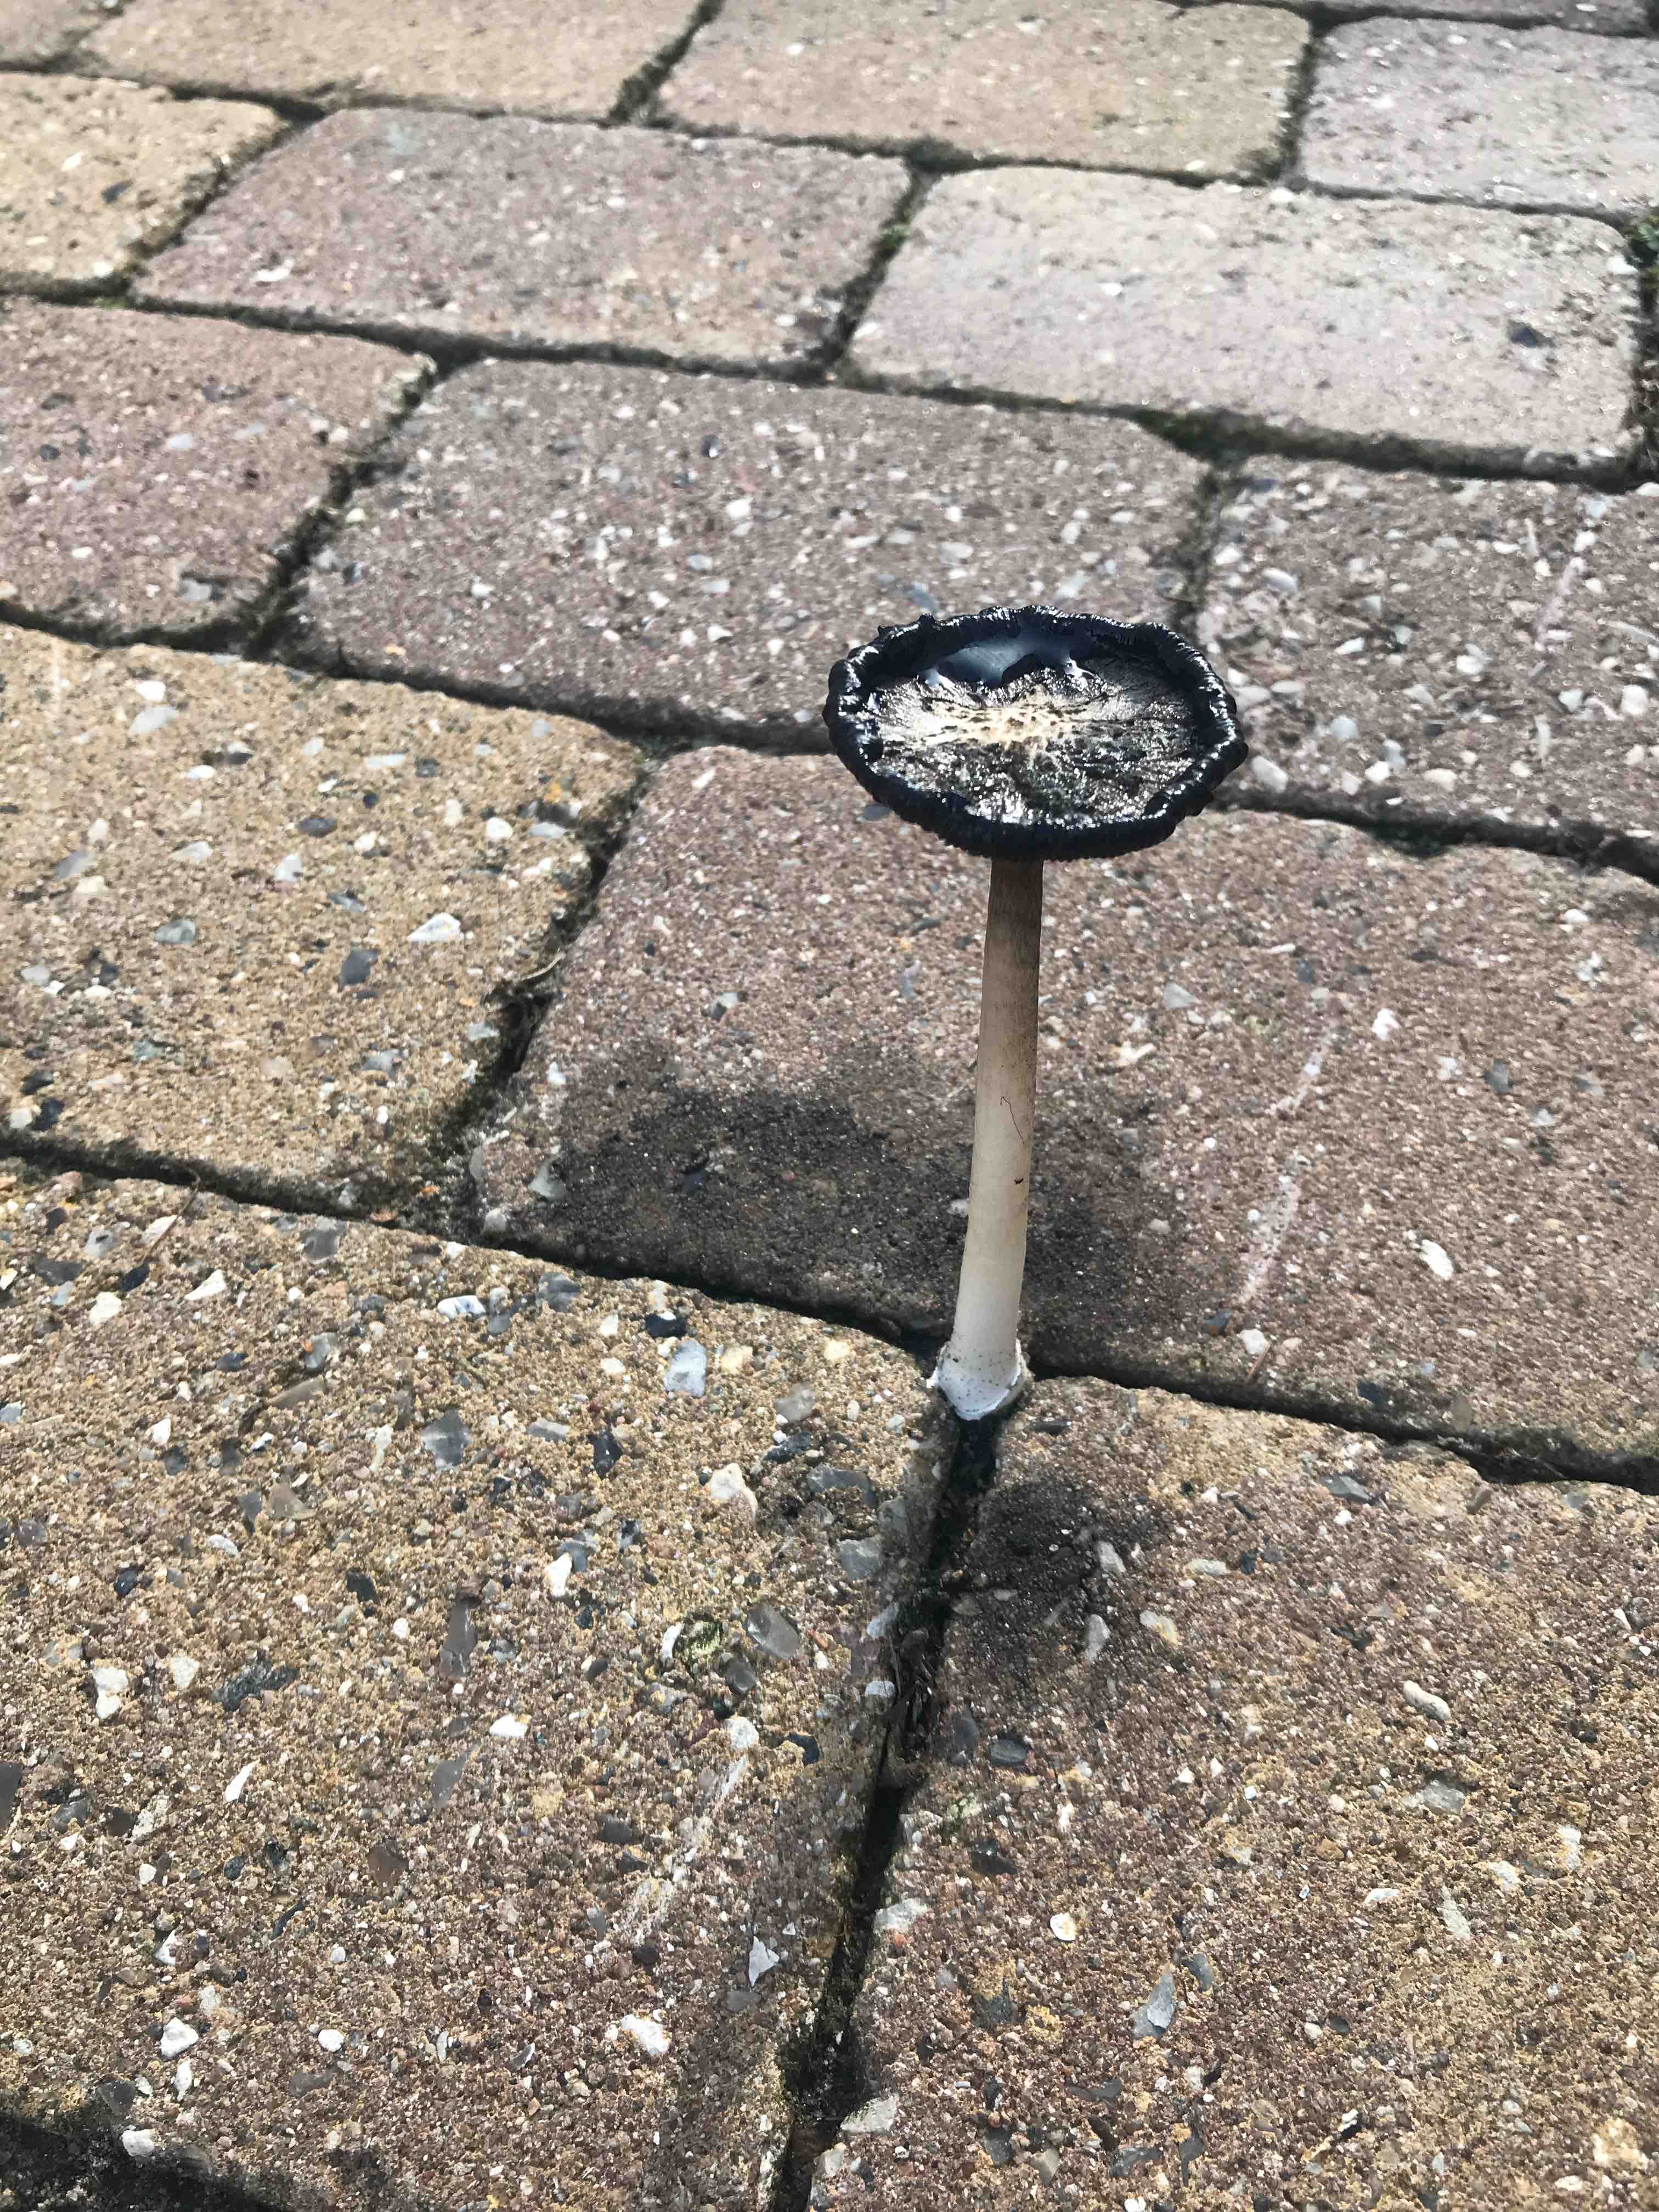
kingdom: Fungi
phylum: Basidiomycota
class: Agaricomycetes
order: Agaricales
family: Agaricaceae
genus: Coprinus
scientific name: Coprinus comatus
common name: stor parykhat
